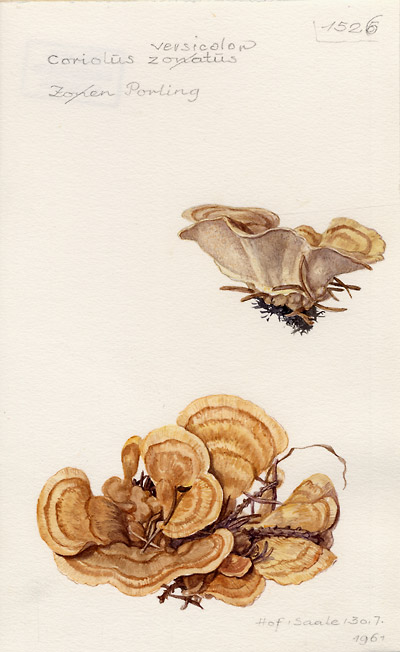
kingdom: Fungi
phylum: Basidiomycota
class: Agaricomycetes
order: Polyporales
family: Polyporaceae
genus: Trametes
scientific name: Trametes versicolor
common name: Turkeytail
